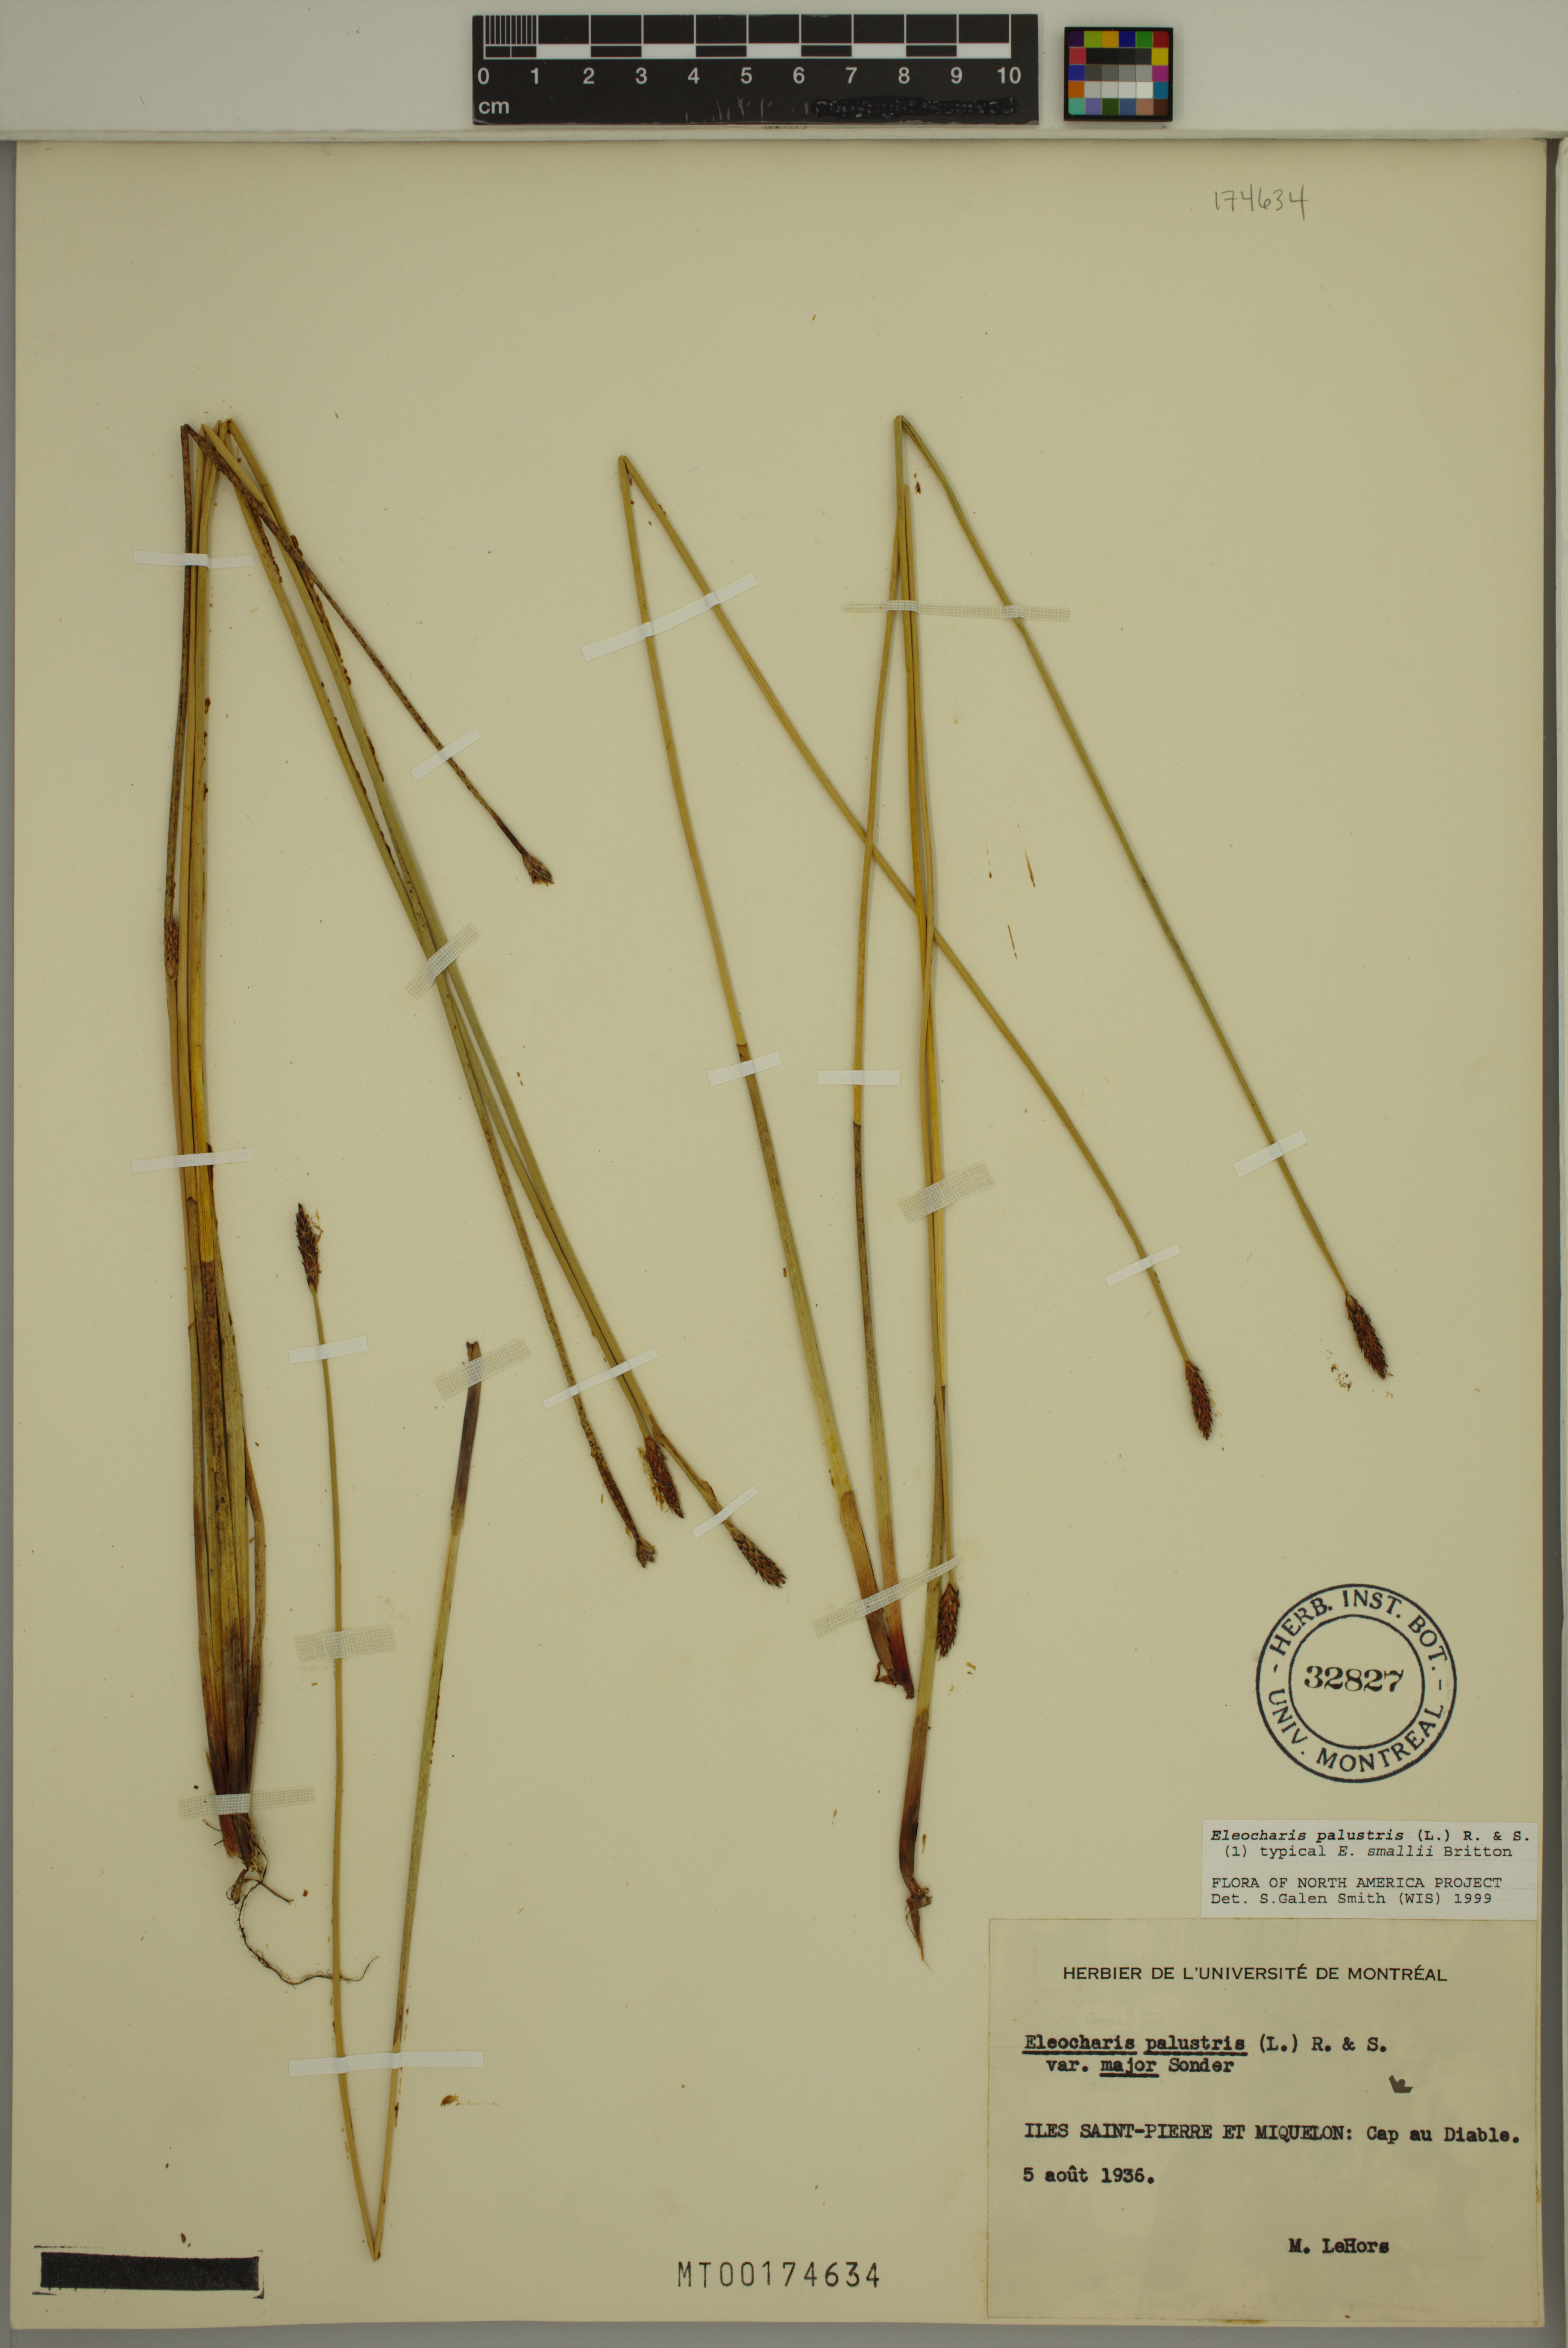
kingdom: Plantae
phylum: Tracheophyta
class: Liliopsida
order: Poales
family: Cyperaceae
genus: Eleocharis
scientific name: Eleocharis palustris
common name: Common spike-rush
